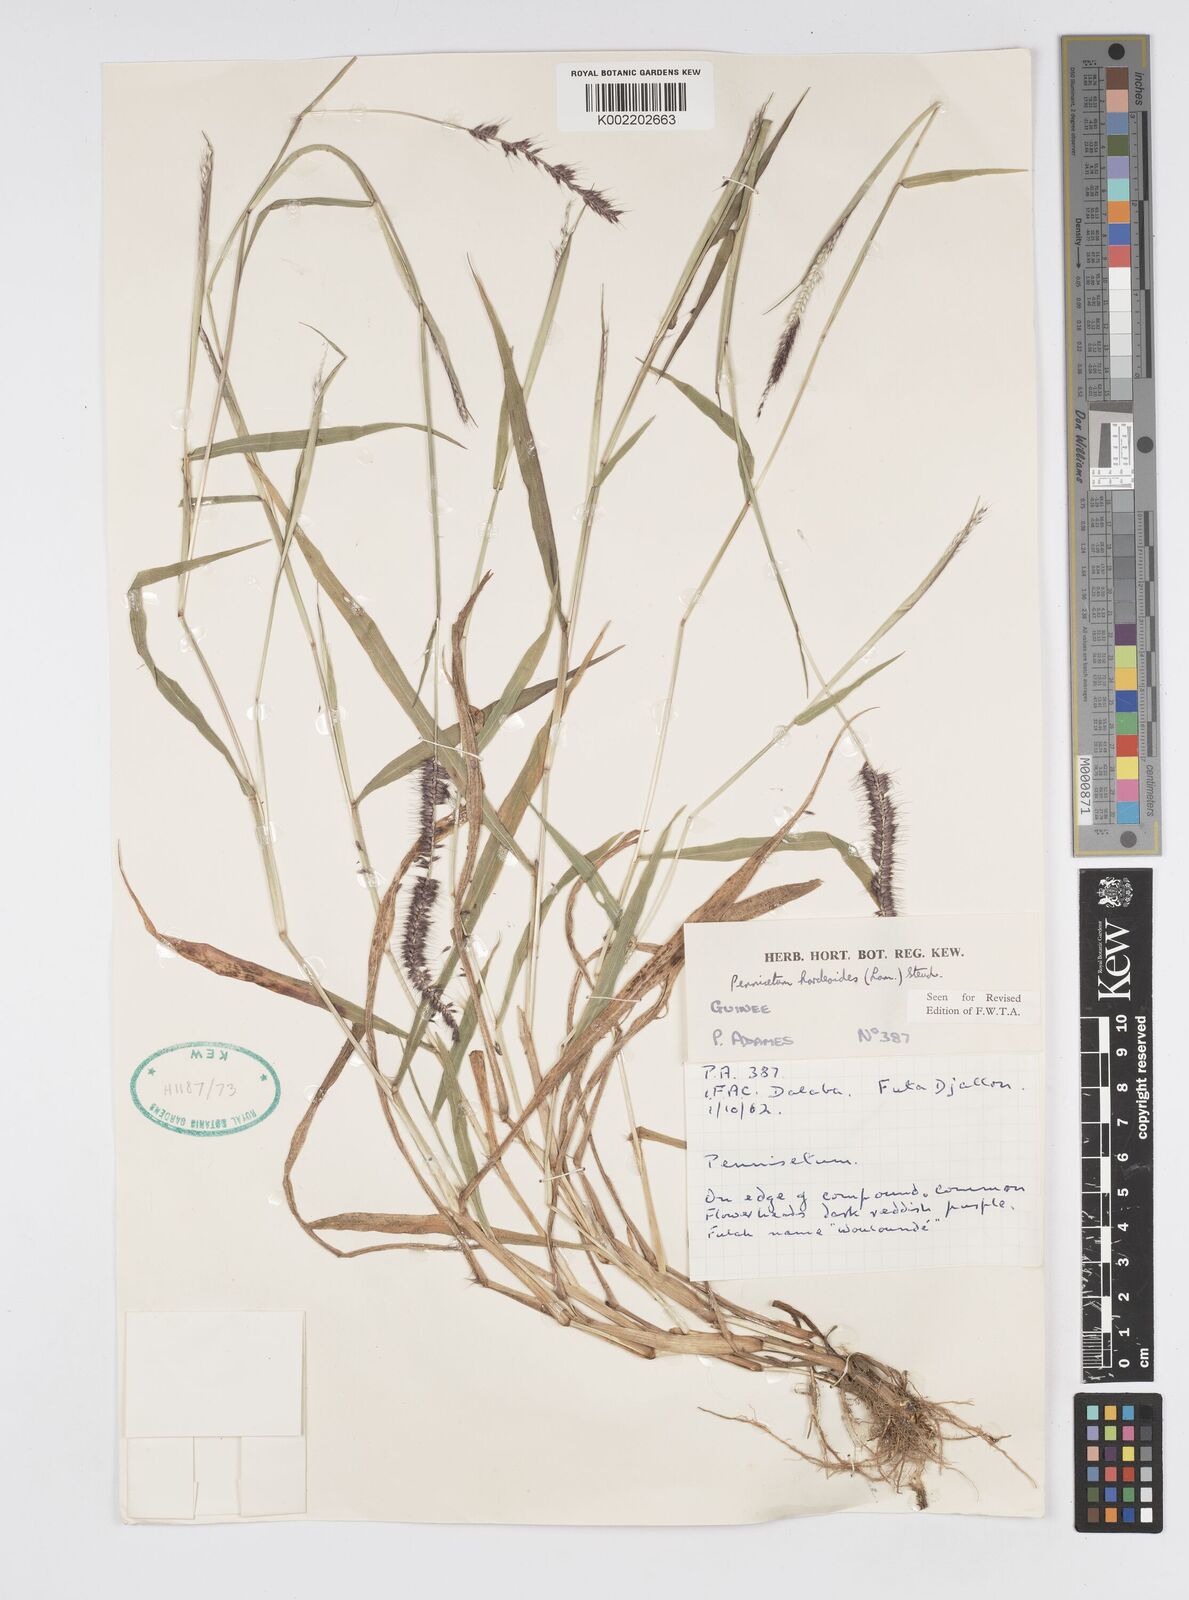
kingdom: Plantae
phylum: Tracheophyta
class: Liliopsida
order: Poales
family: Poaceae
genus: Cenchrus
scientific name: Cenchrus hordeoides
